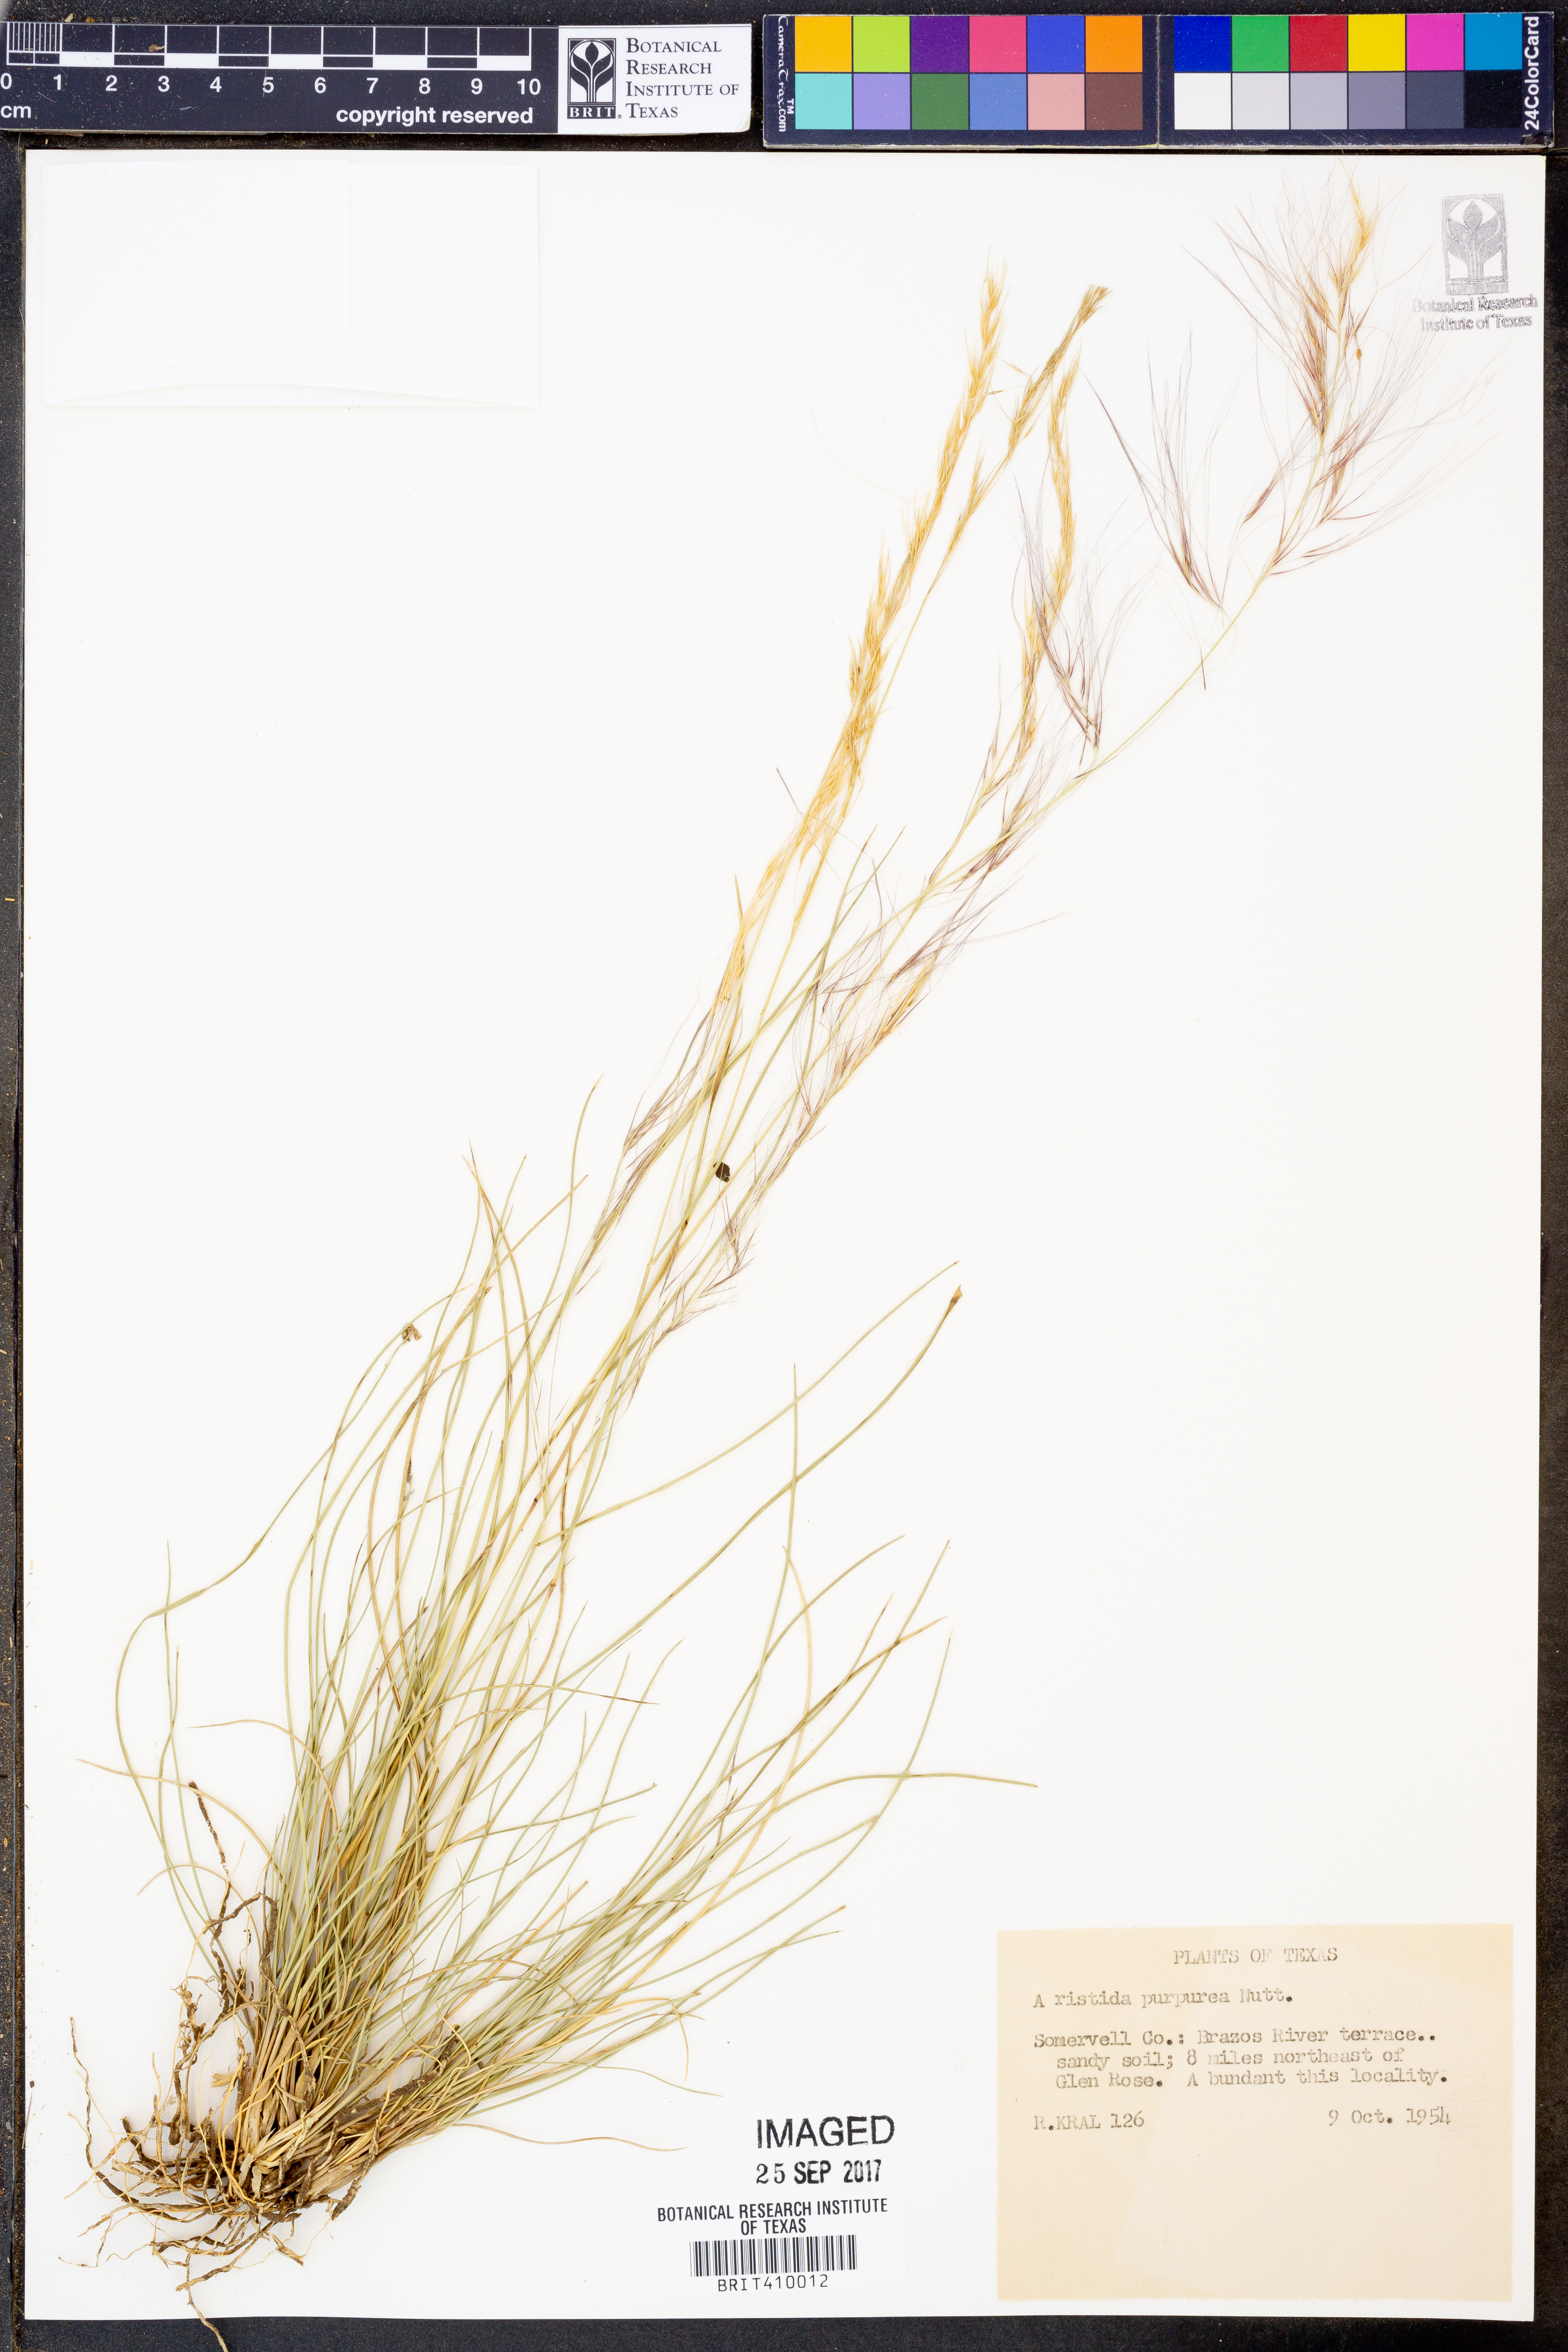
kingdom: Plantae
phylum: Tracheophyta
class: Liliopsida
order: Poales
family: Poaceae
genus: Aristida
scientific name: Aristida purpurea
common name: Purple threeawn
